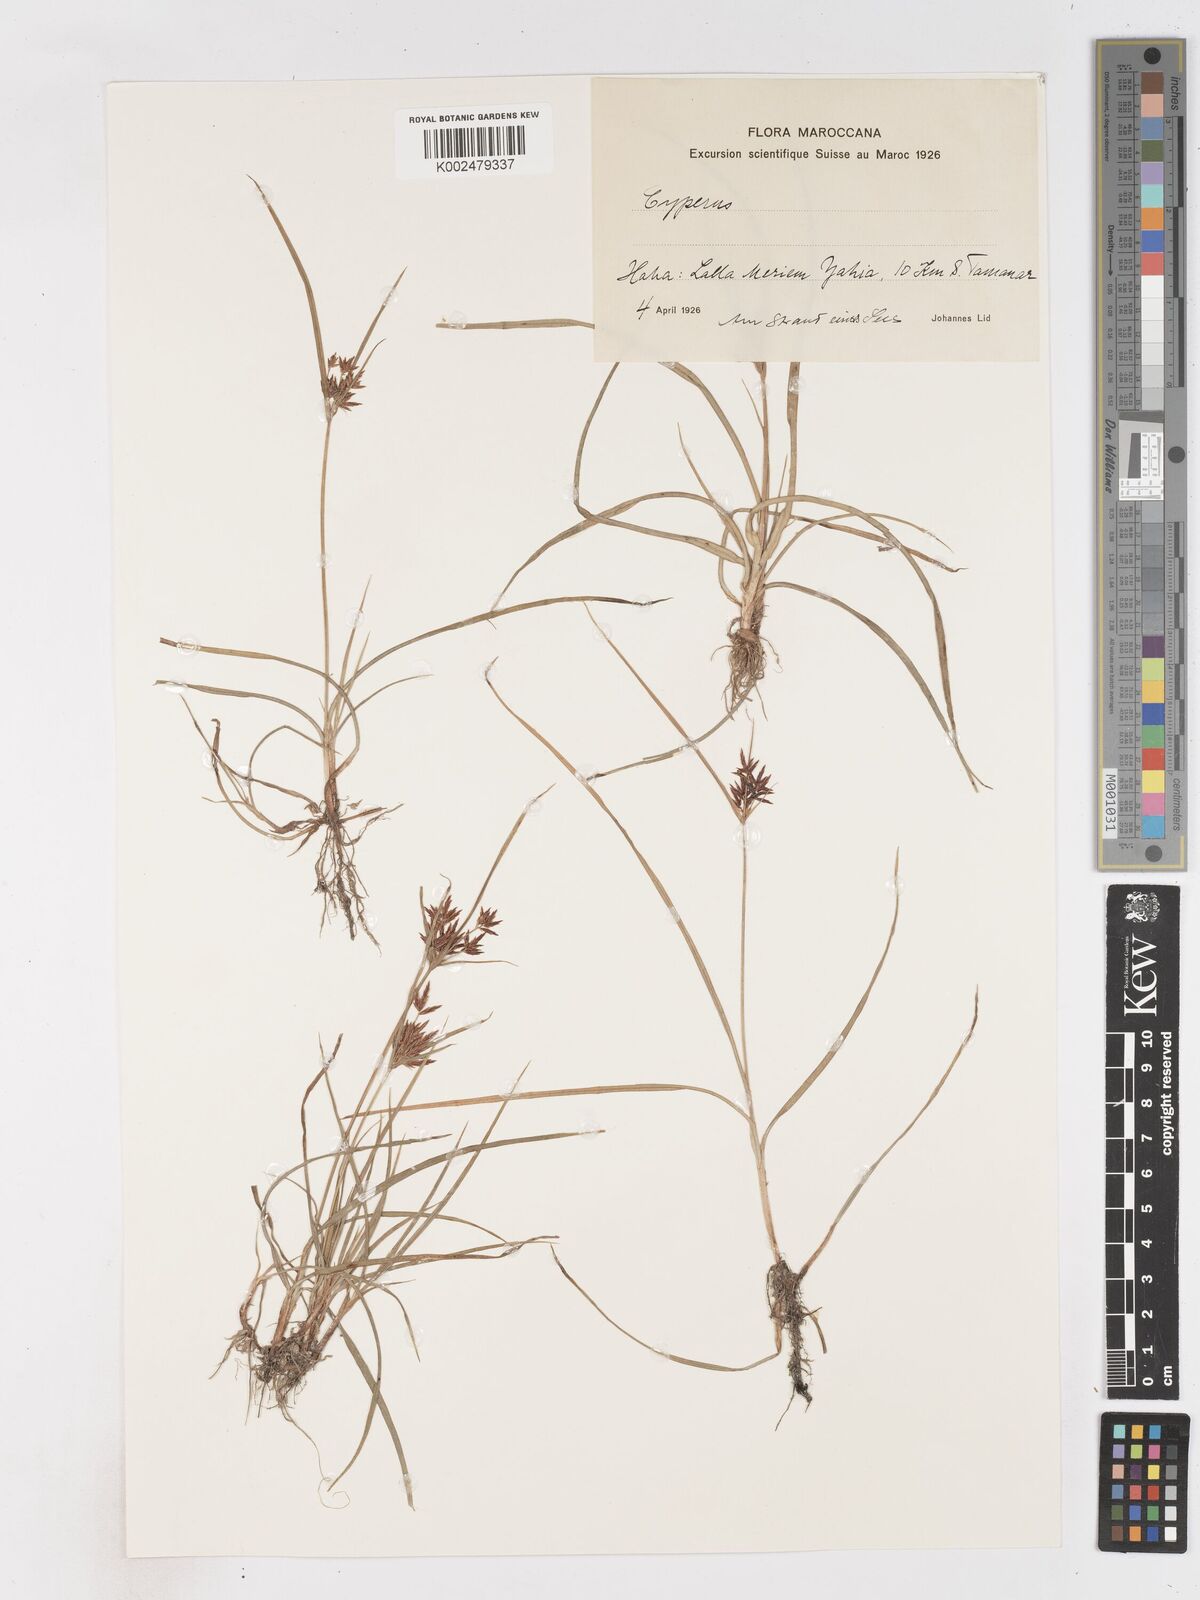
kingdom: Plantae
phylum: Tracheophyta
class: Liliopsida
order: Poales
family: Cyperaceae
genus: Cyperus
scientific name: Cyperus rotundus
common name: Nutgrass
